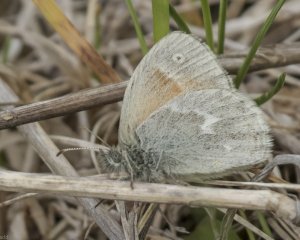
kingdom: Animalia
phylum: Arthropoda
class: Insecta
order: Lepidoptera
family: Nymphalidae
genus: Coenonympha
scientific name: Coenonympha tullia
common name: Large Heath
